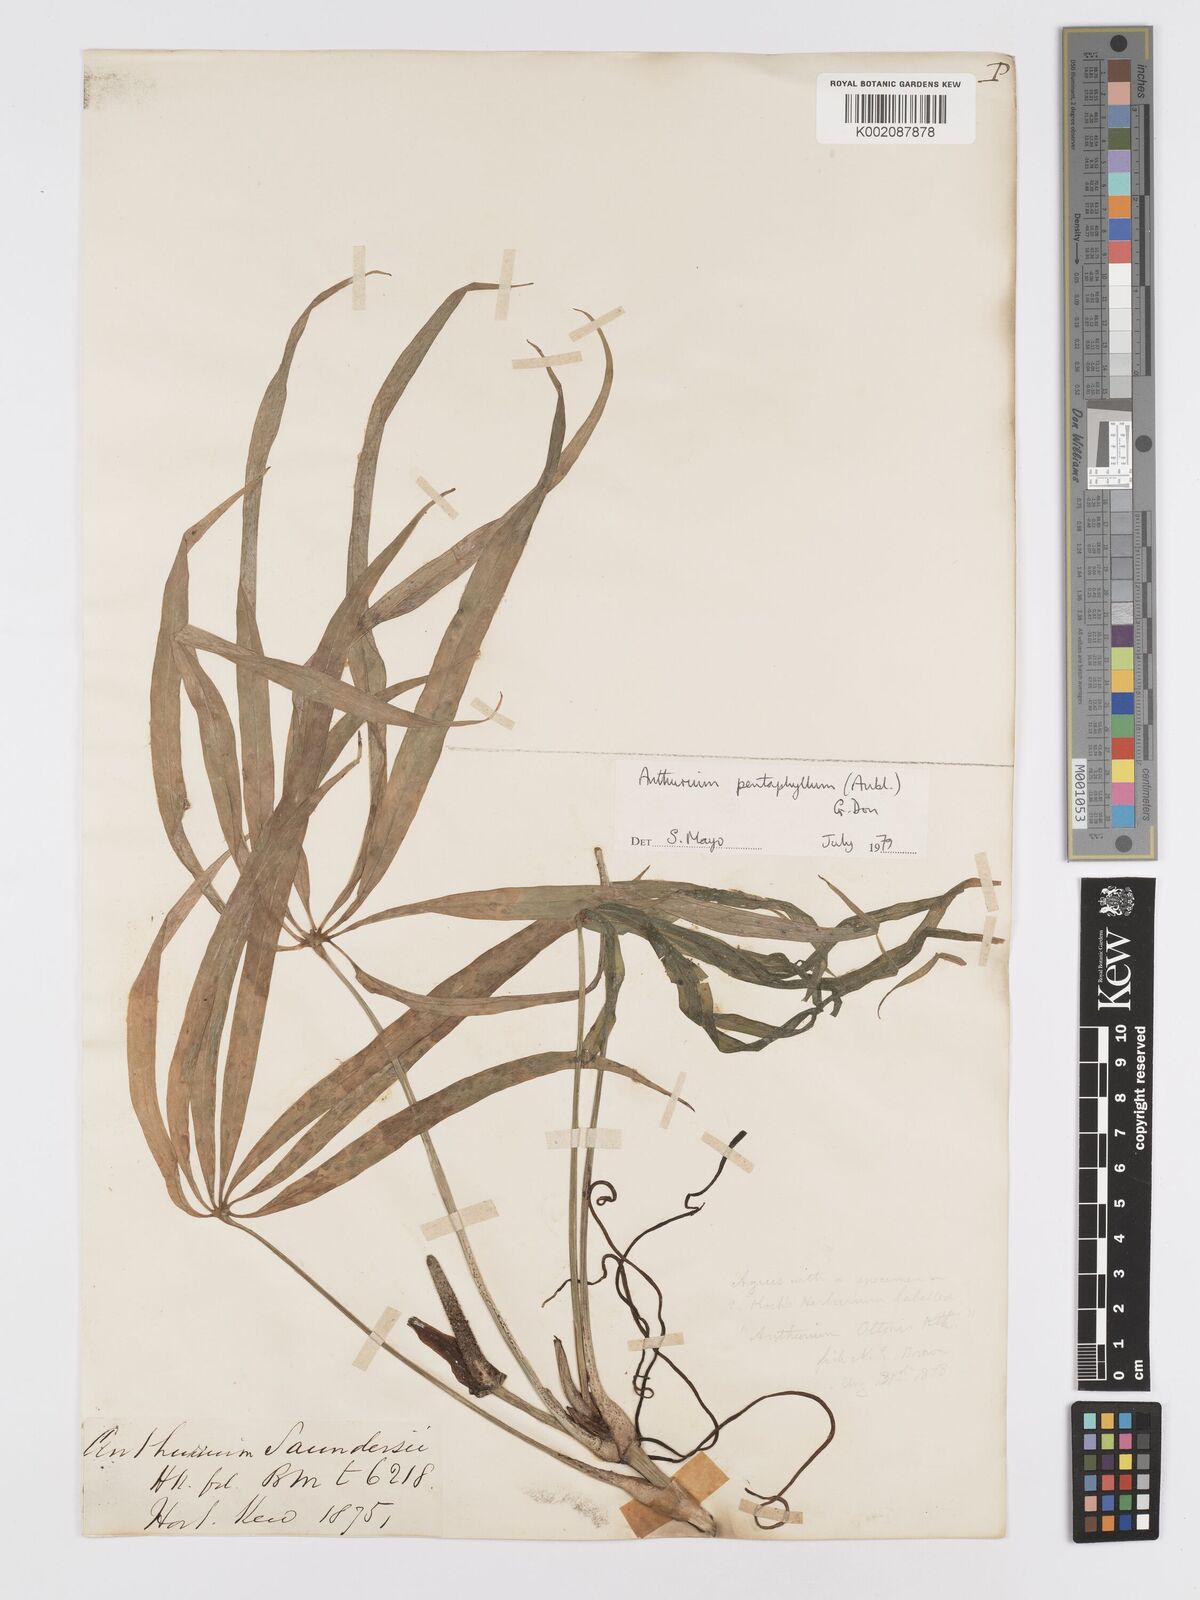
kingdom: Plantae
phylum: Tracheophyta
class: Liliopsida
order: Alismatales
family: Araceae
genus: Anthurium
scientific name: Anthurium pentaphyllum
